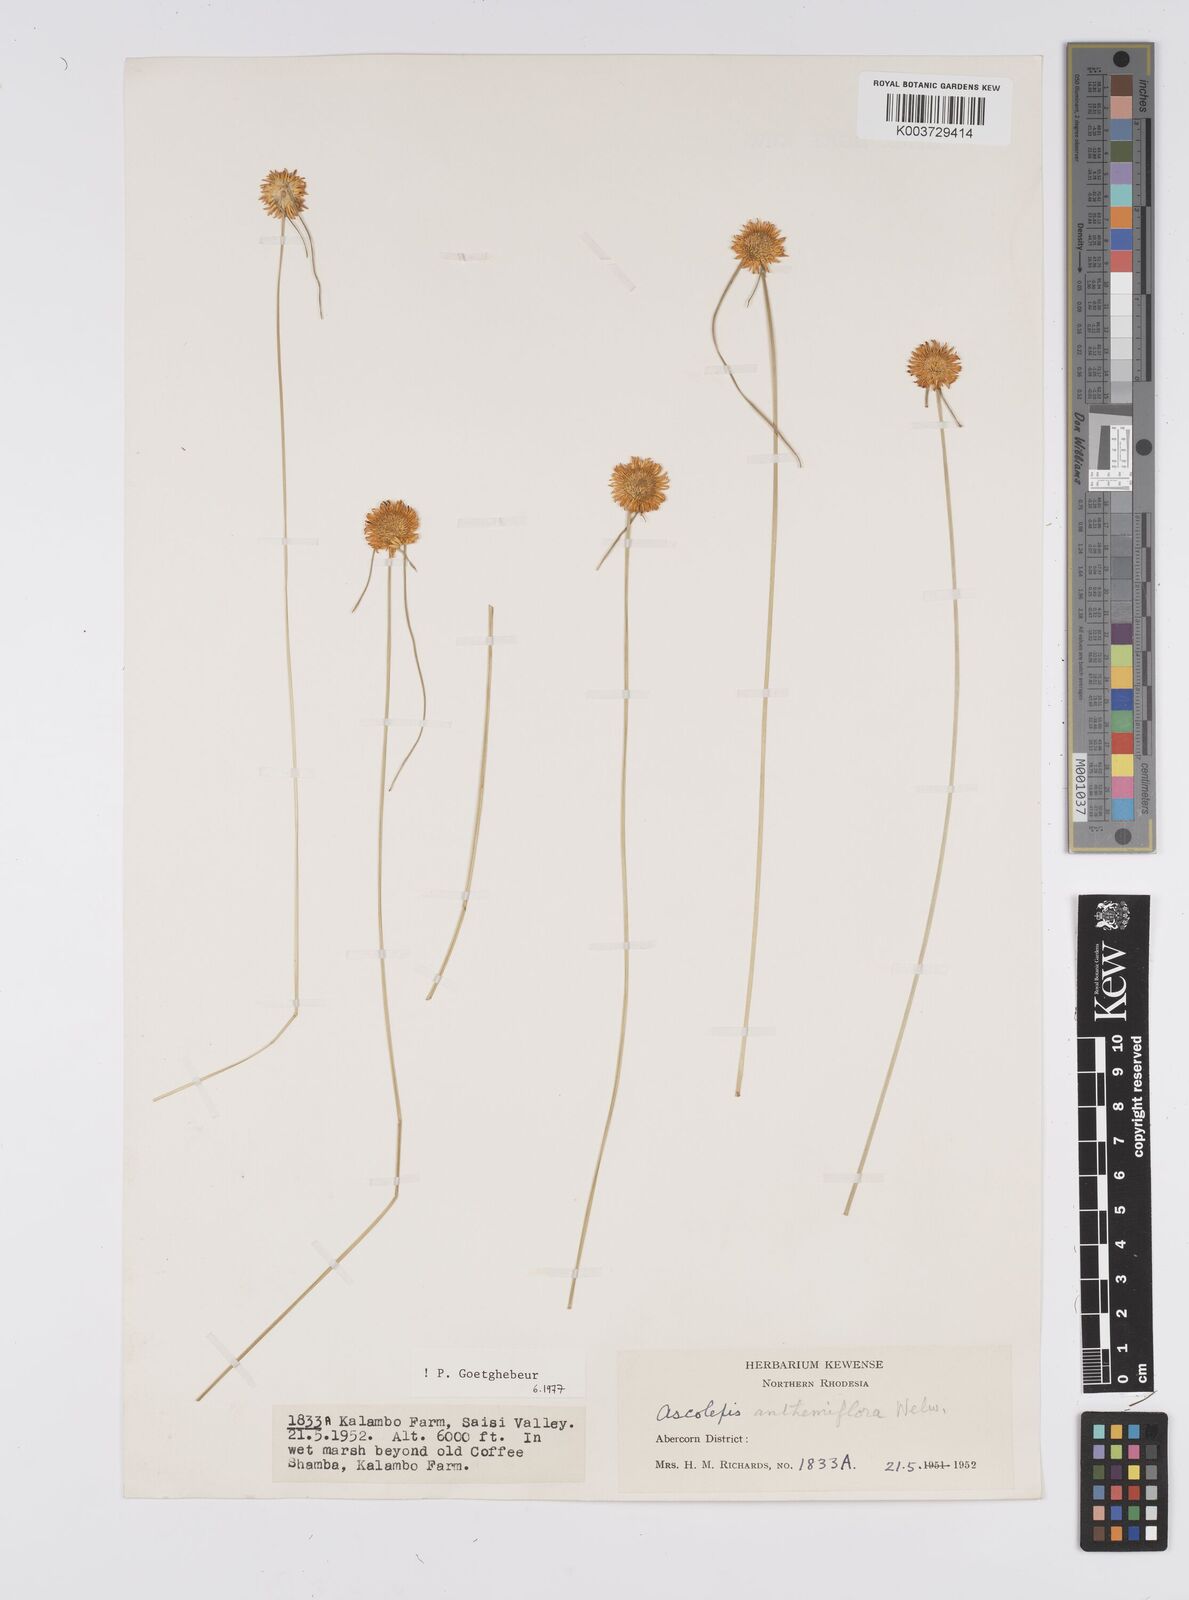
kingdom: Plantae
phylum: Tracheophyta
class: Liliopsida
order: Poales
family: Cyperaceae
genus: Cyperus
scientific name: Cyperus
